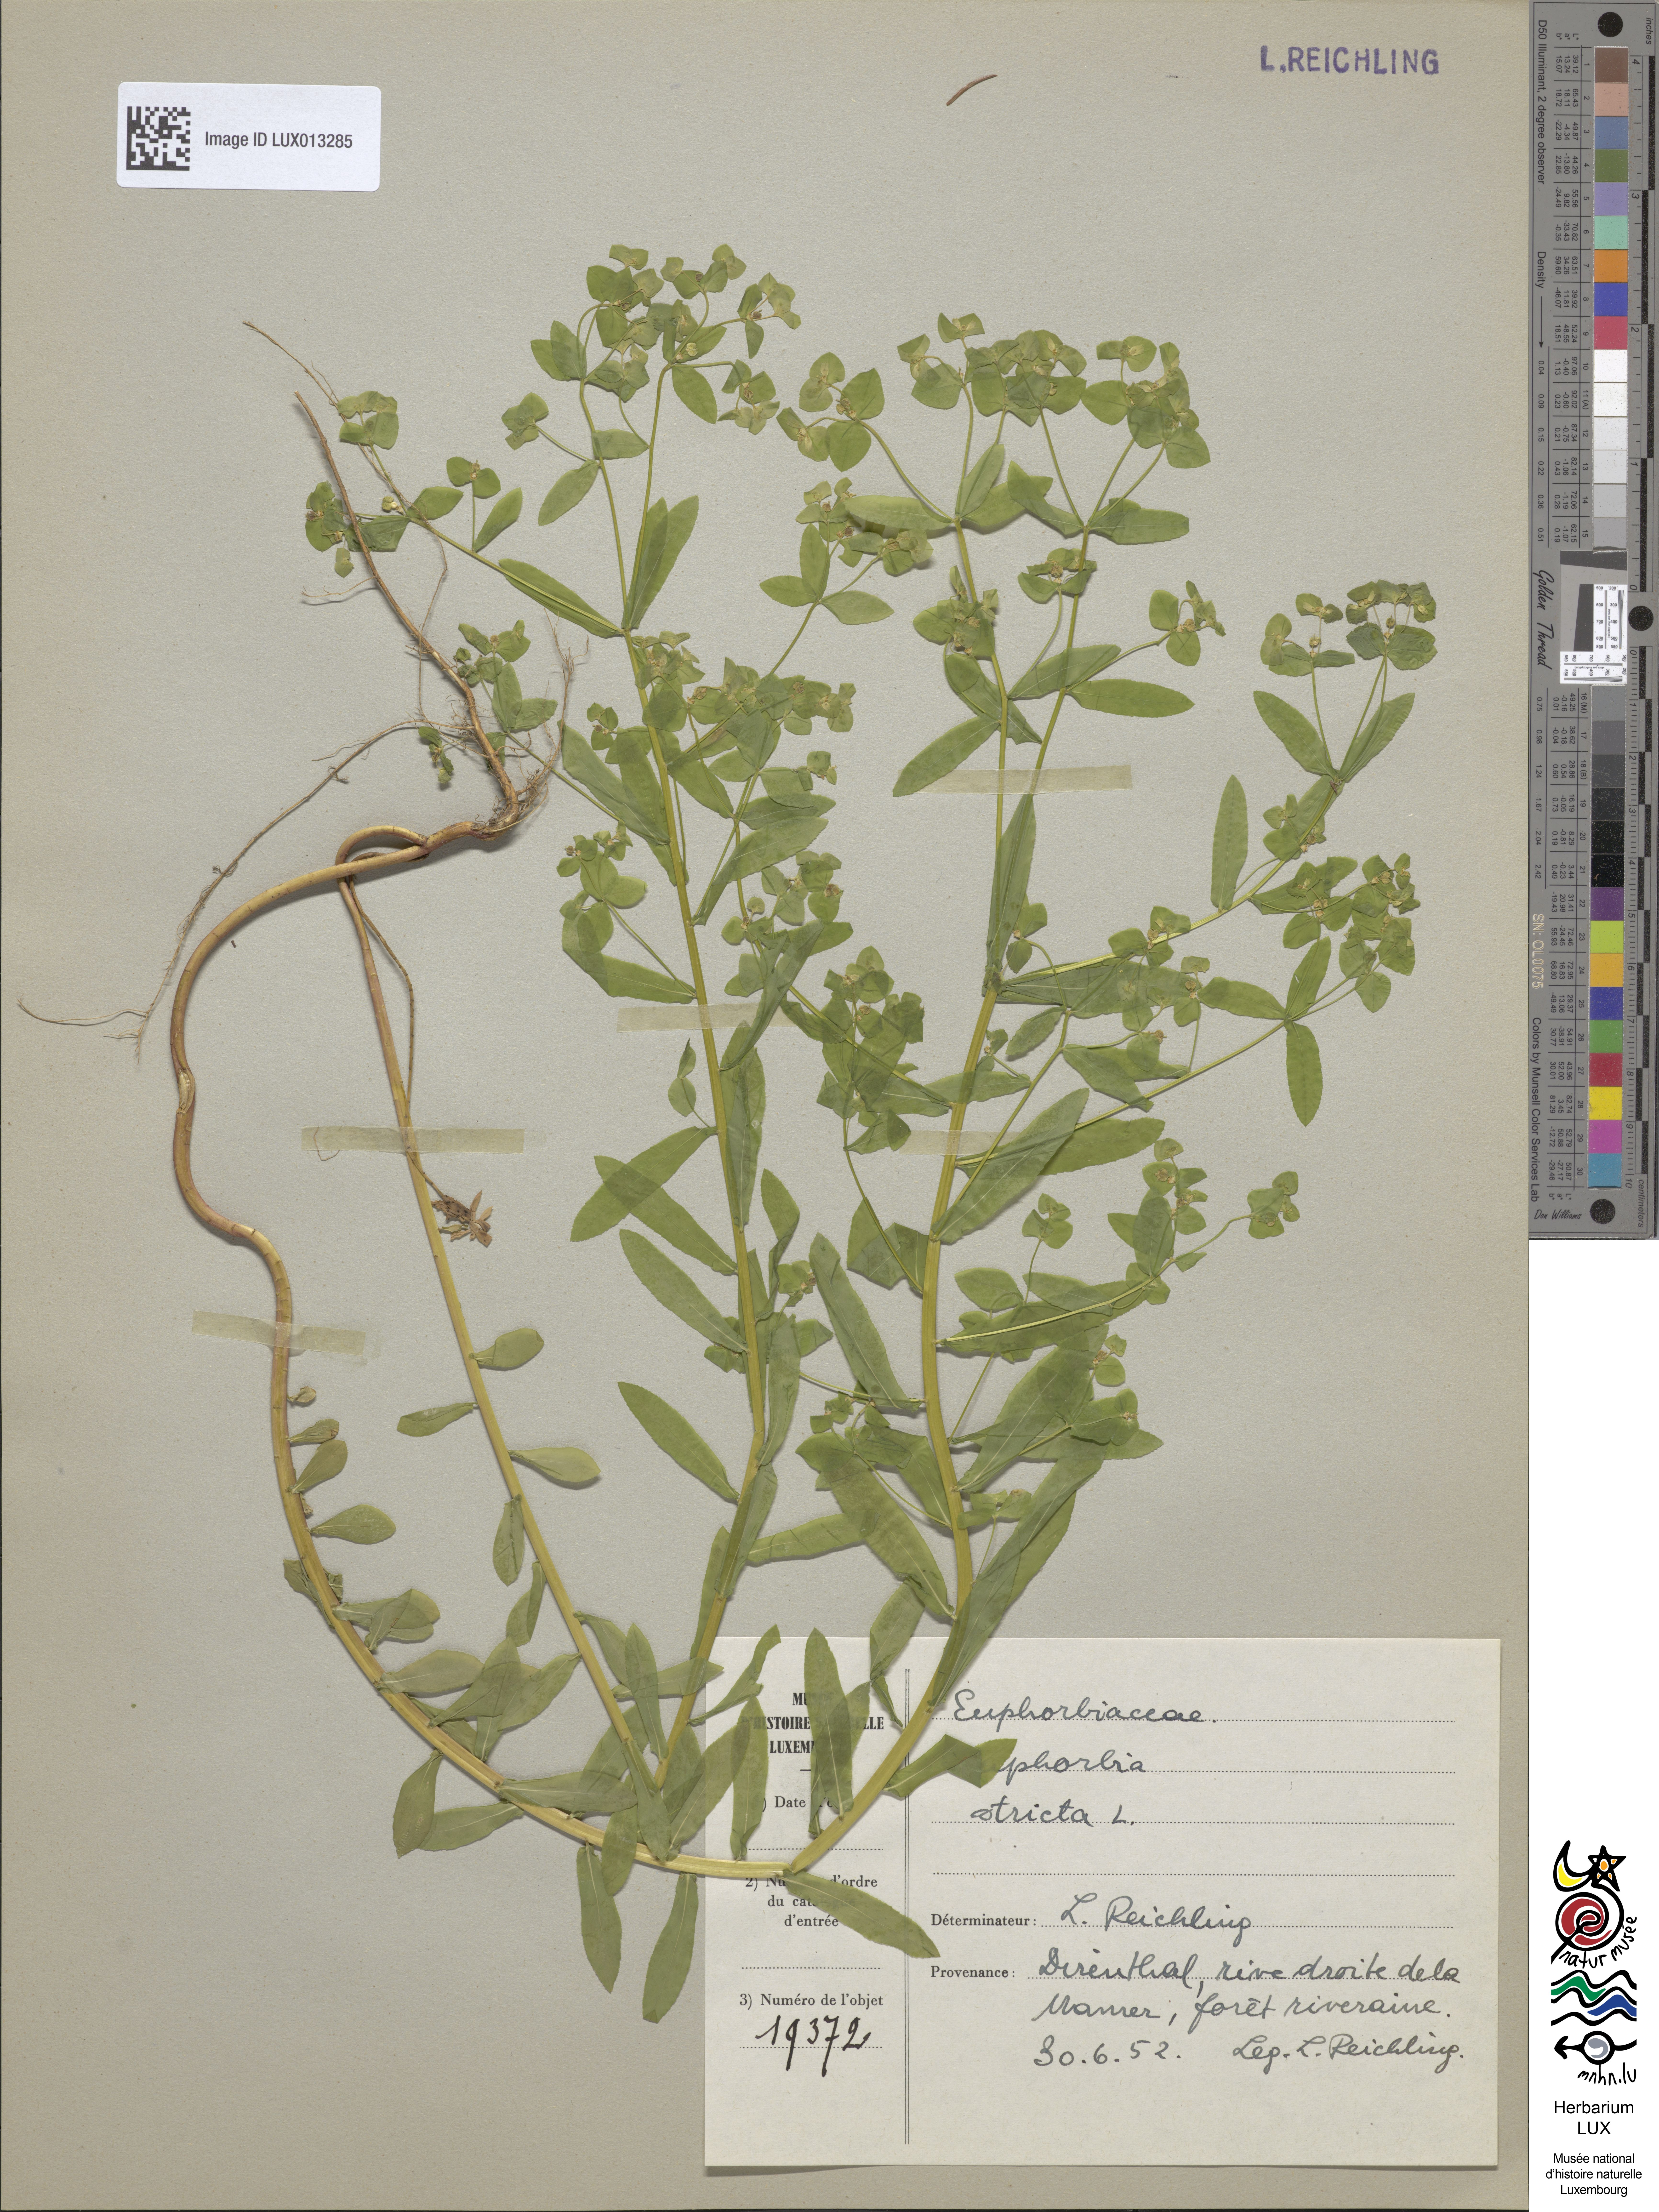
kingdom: Plantae
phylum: Tracheophyta
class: Magnoliopsida
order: Malpighiales
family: Euphorbiaceae
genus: Euphorbia
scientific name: Euphorbia stricta
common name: Upright spurge
